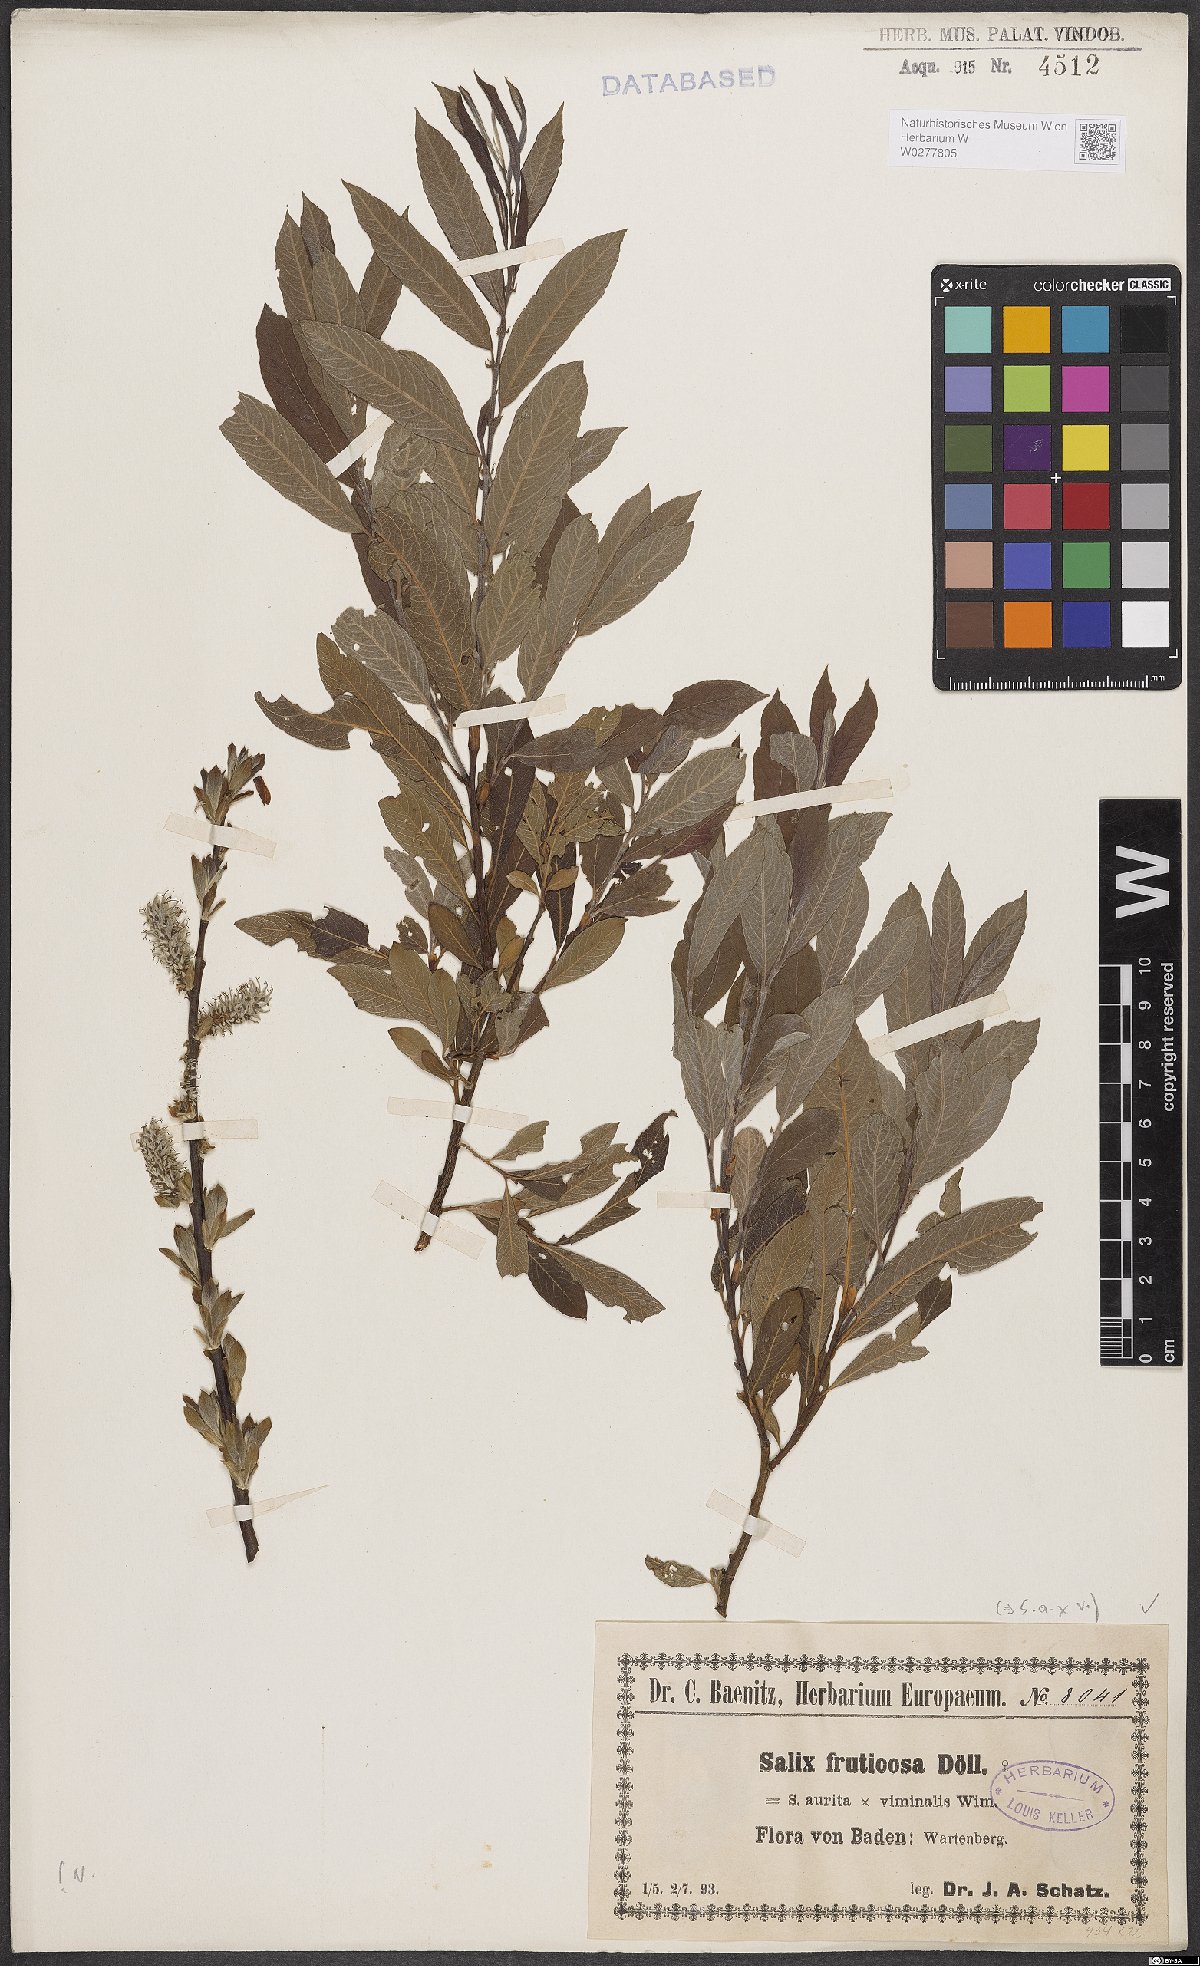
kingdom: Plantae
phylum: Tracheophyta
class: Magnoliopsida
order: Malpighiales
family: Salicaceae
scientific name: Salicaceae
